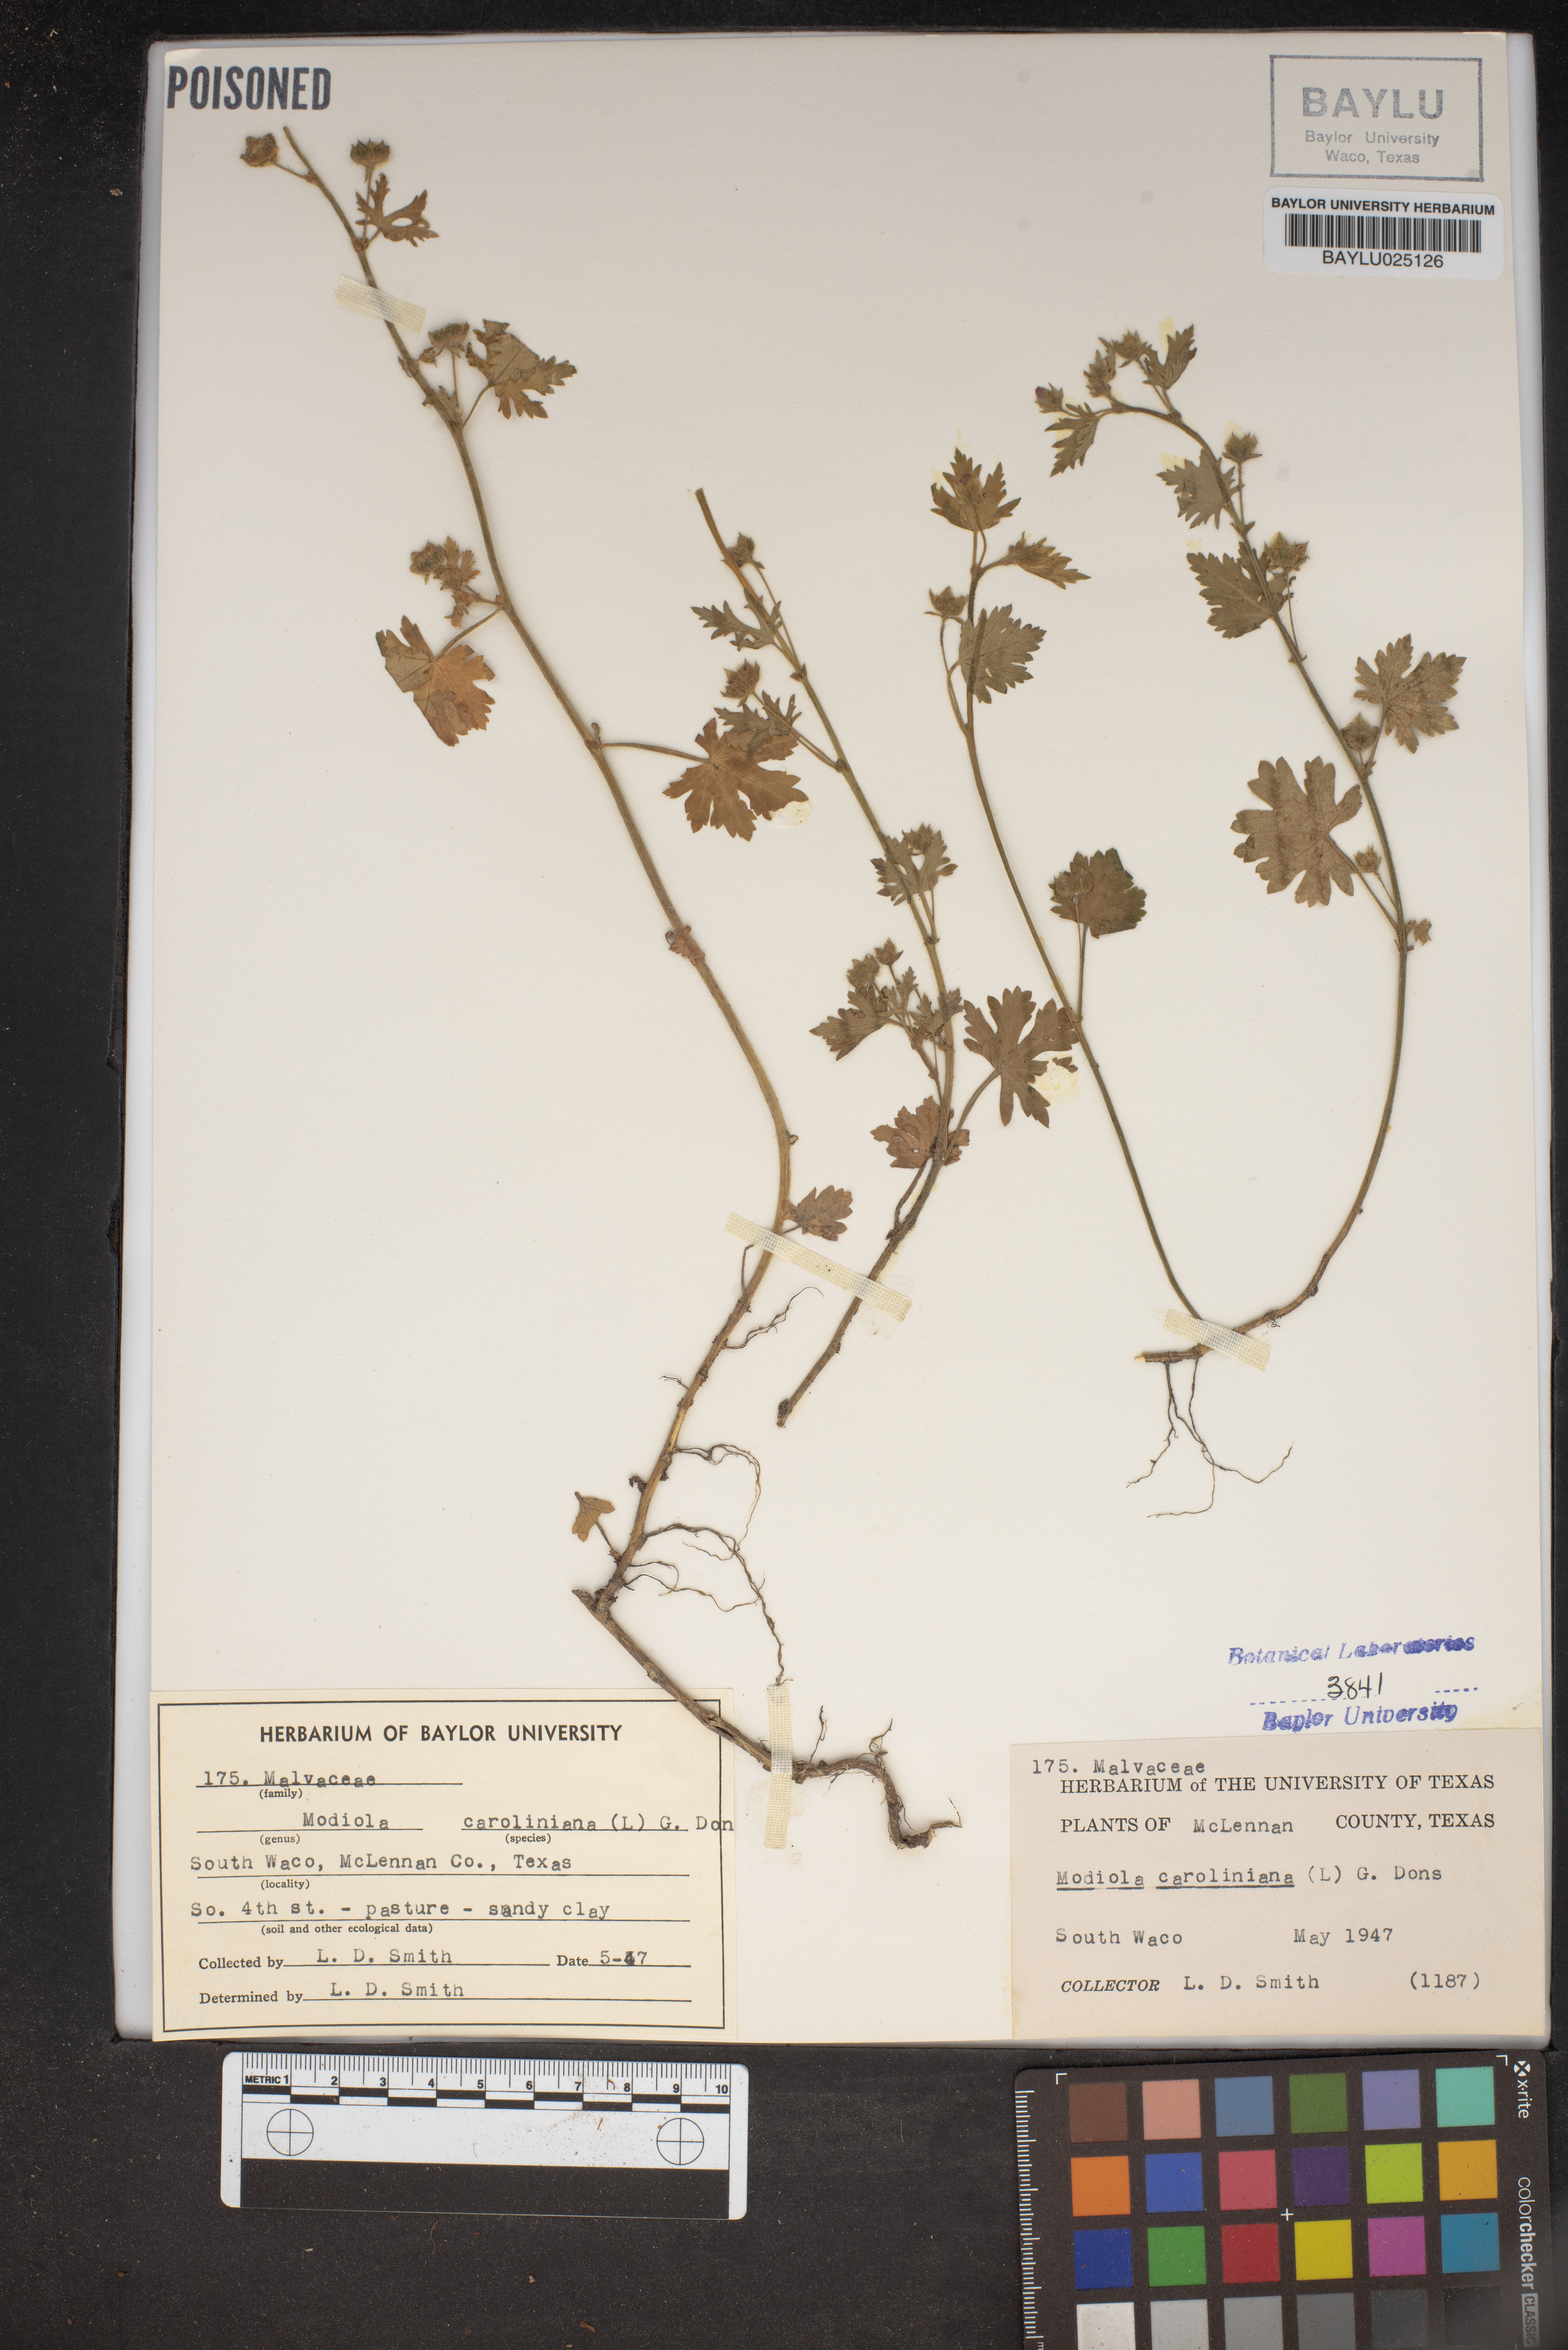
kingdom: Plantae
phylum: Tracheophyta
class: Magnoliopsida
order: Malvales
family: Malvaceae
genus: Modiola
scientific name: Modiola caroliniana
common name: Carolina bristlemallow
